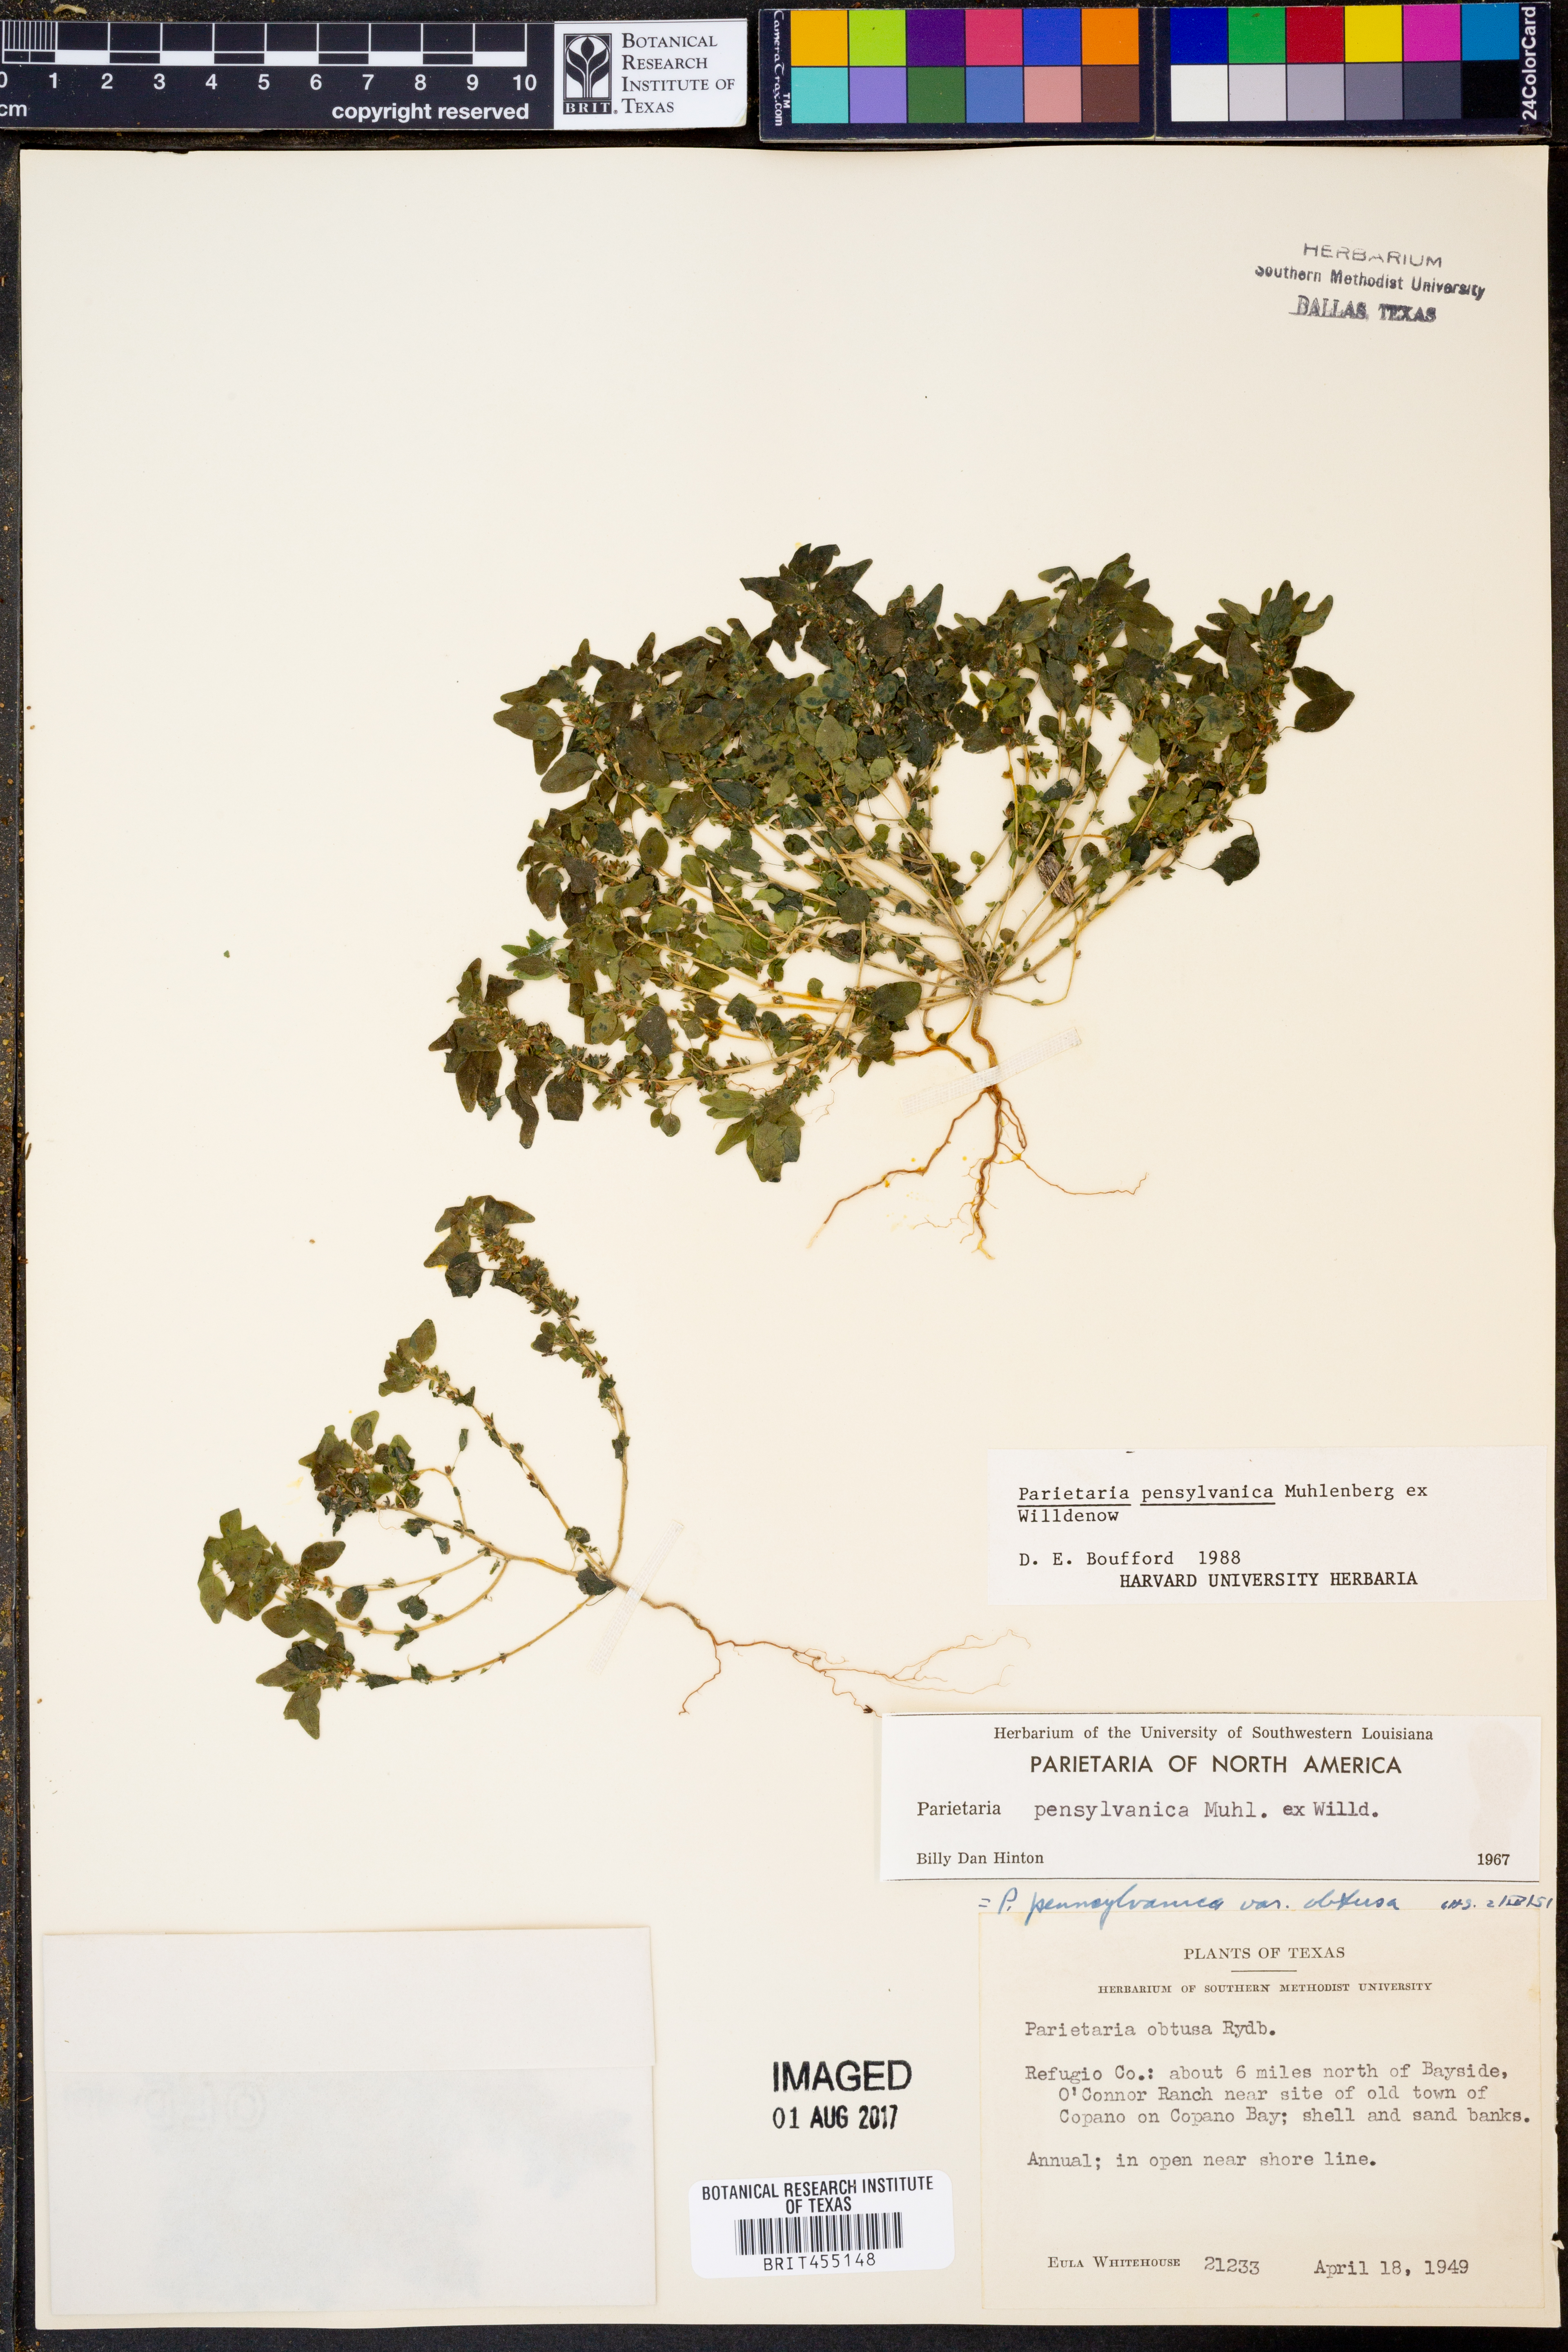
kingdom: Plantae
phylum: Tracheophyta
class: Magnoliopsida
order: Rosales
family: Urticaceae
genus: Parietaria
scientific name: Parietaria pensylvanica
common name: Pennsylvania pellitory
